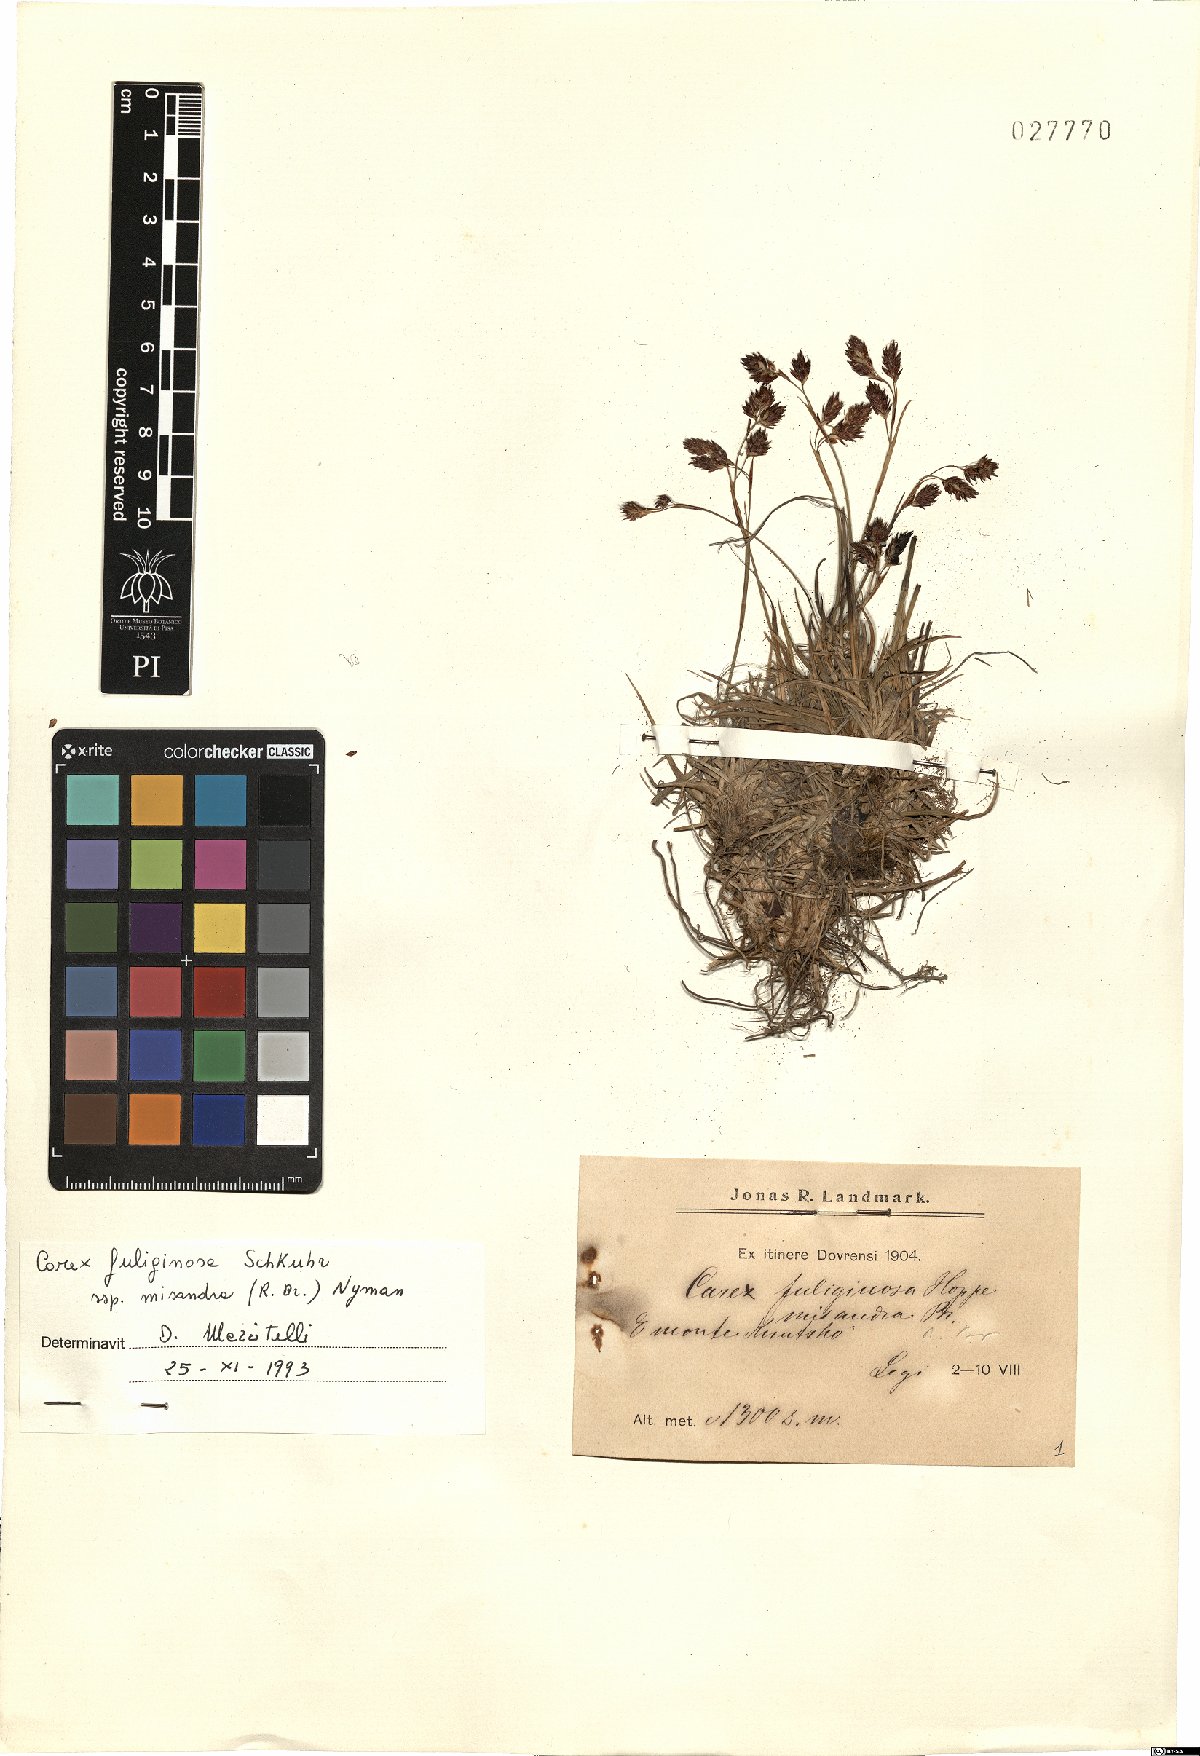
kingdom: Plantae
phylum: Tracheophyta
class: Liliopsida
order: Poales
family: Cyperaceae
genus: Carex
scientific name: Carex fuliginosa
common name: Few-flowered sedge
